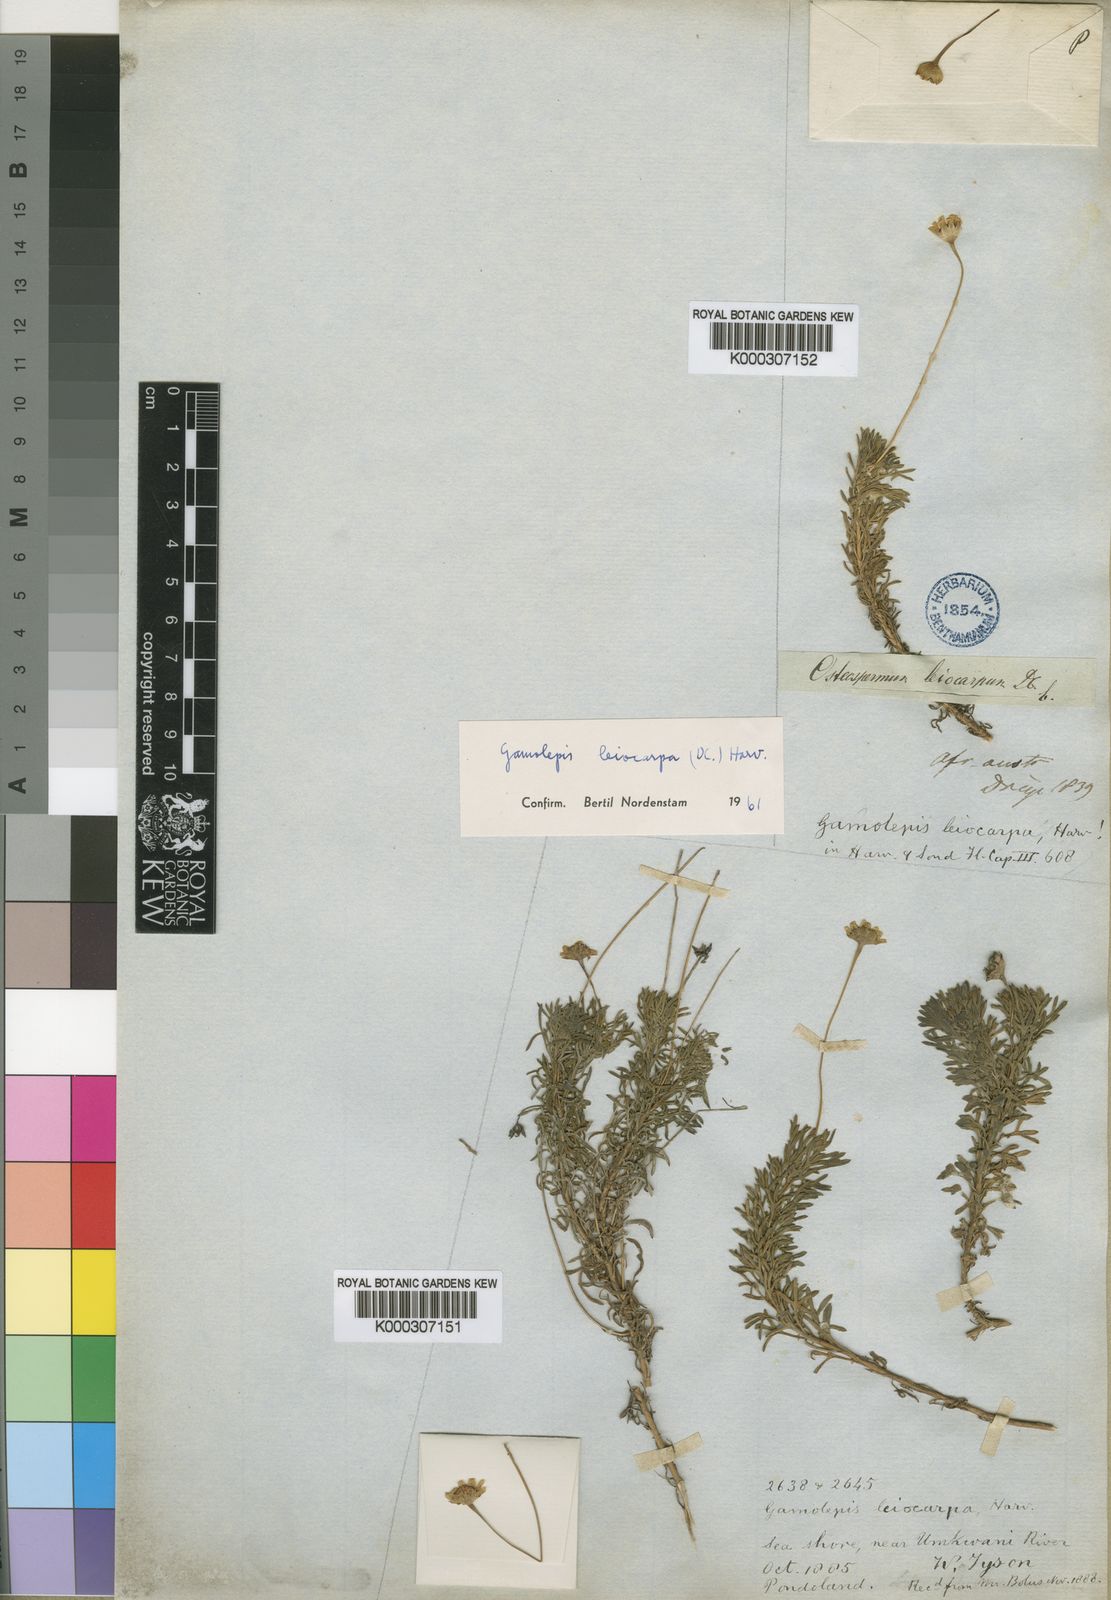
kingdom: Plantae
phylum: Tracheophyta
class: Magnoliopsida
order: Asterales
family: Asteraceae
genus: Euryops
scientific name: Euryops leiocarpus
